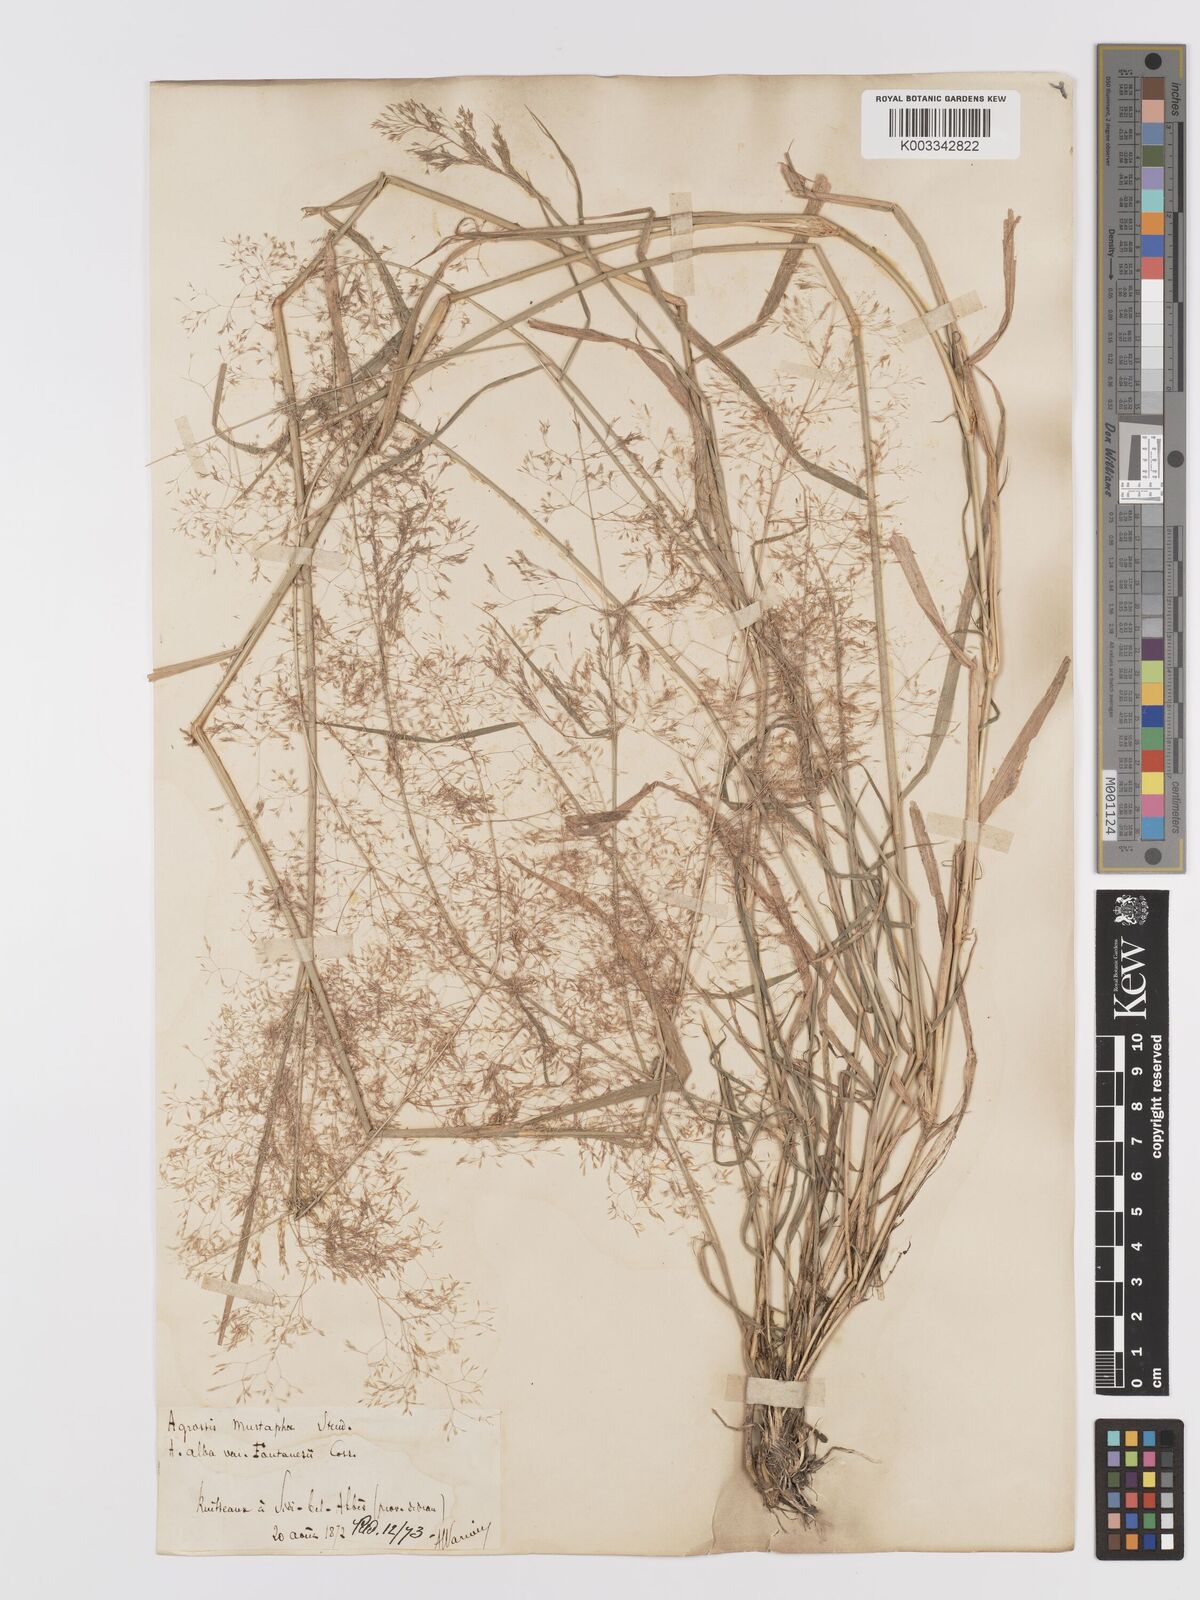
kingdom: Plantae
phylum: Tracheophyta
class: Liliopsida
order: Poales
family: Poaceae
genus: Agrostis
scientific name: Agrostis reuteri
